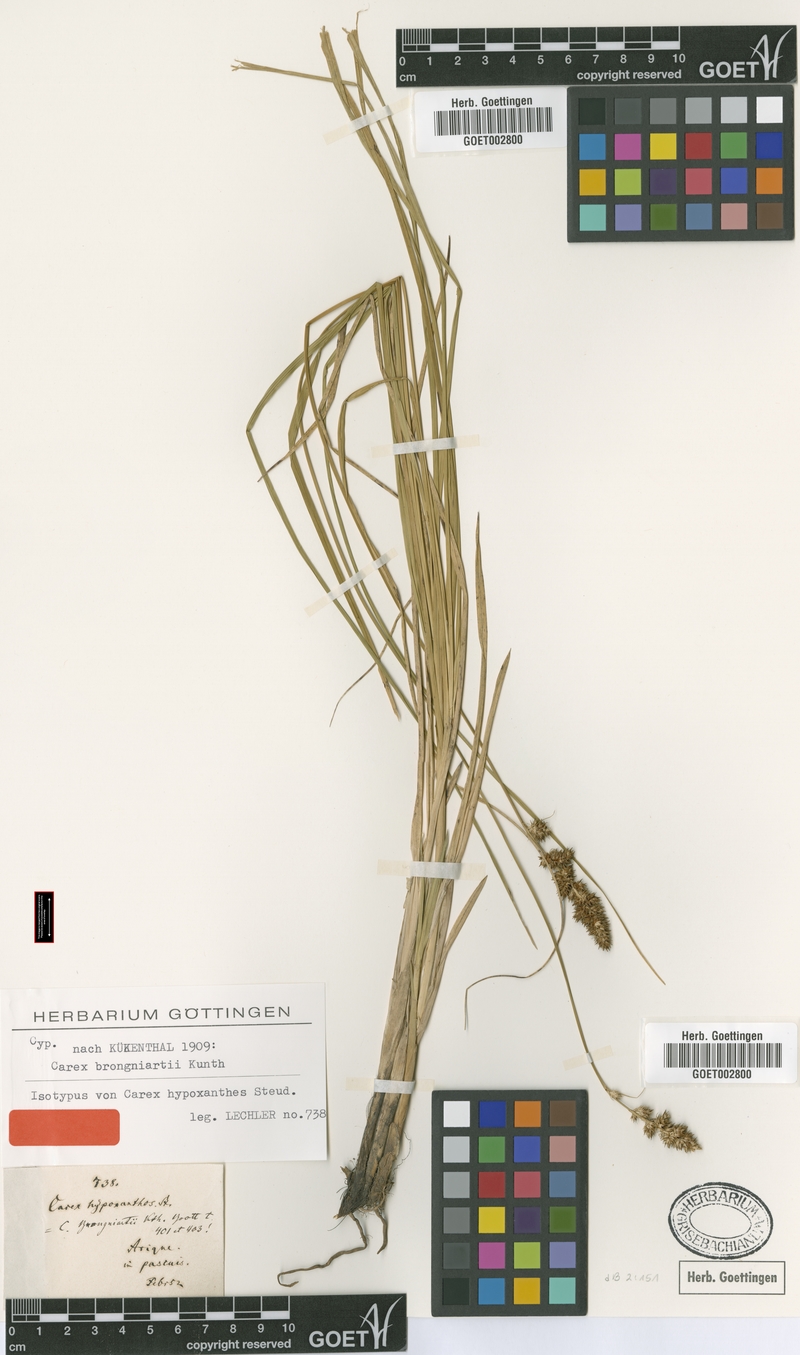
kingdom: Plantae
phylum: Tracheophyta
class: Liliopsida
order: Poales
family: Cyperaceae
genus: Carex
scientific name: Carex brongniartii
